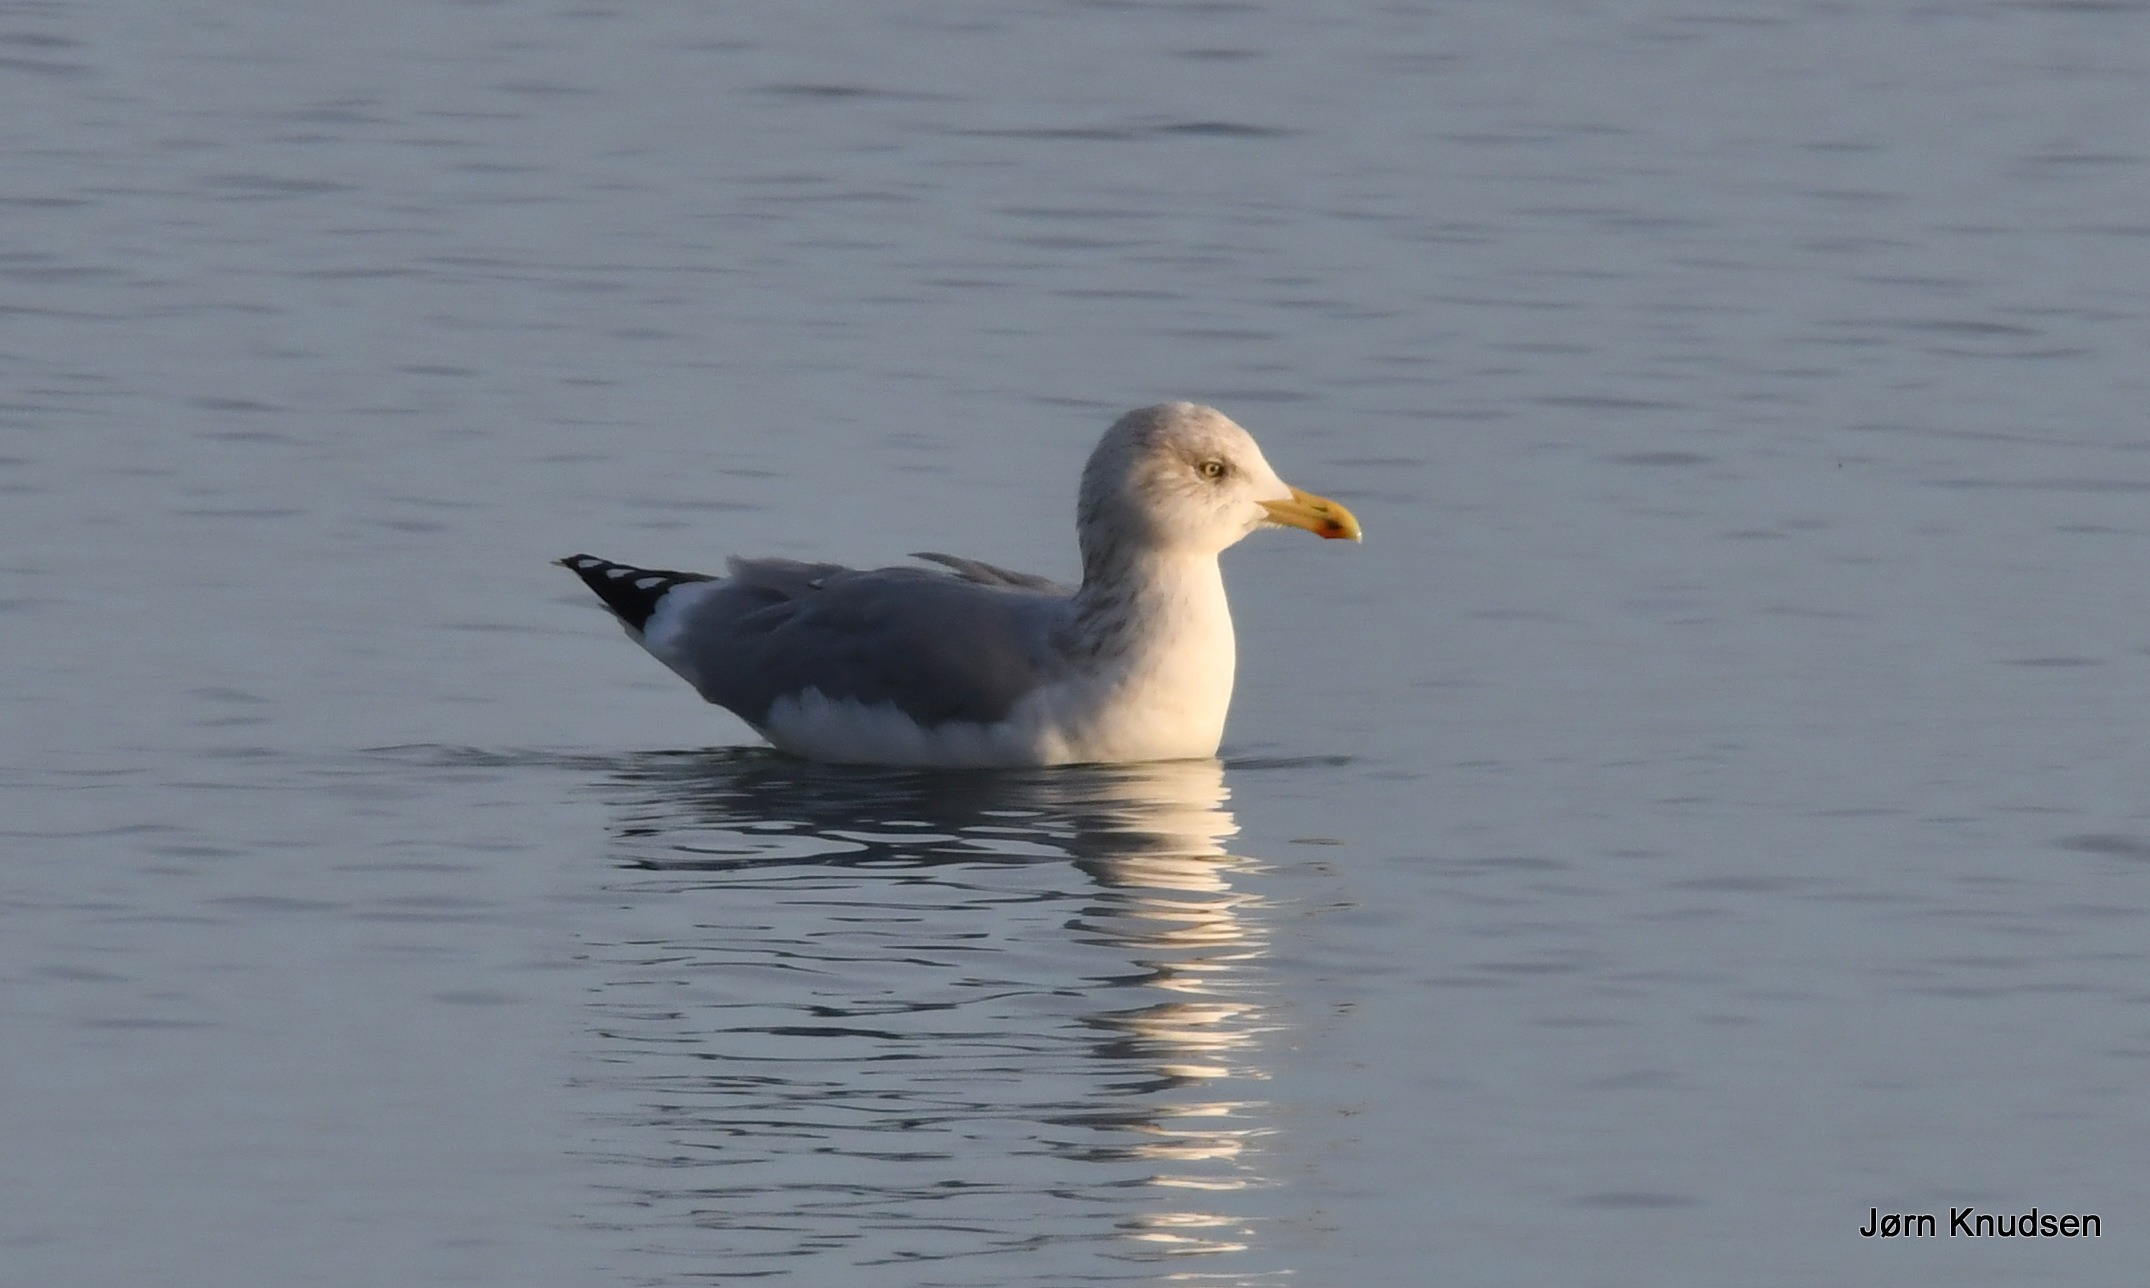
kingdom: Animalia
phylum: Chordata
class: Aves
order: Charadriiformes
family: Laridae
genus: Larus
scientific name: Larus argentatus
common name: Sølvmåge
